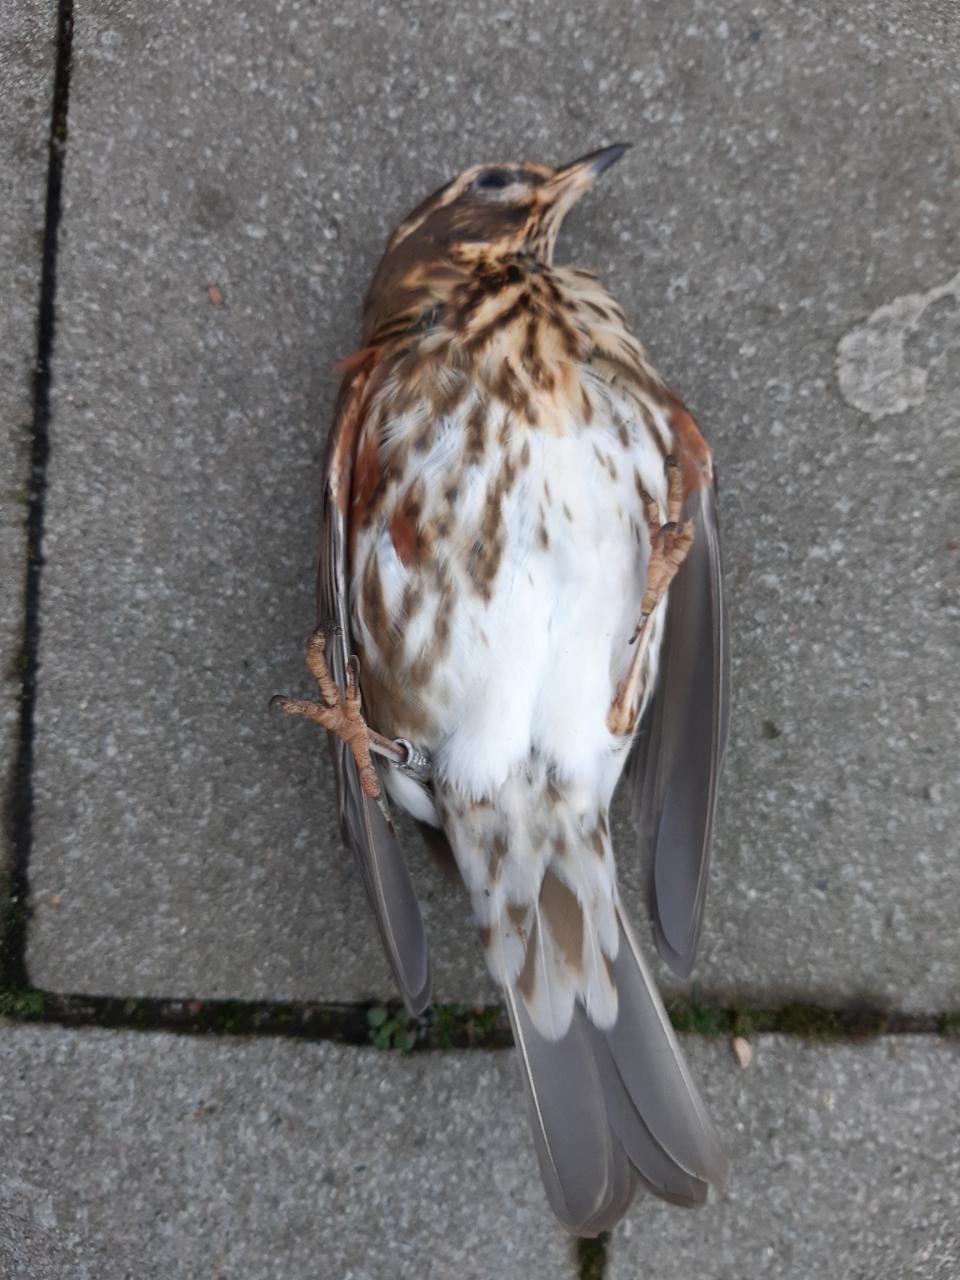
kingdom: Animalia
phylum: Chordata
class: Aves
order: Passeriformes
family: Turdidae
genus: Turdus
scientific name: Turdus iliacus
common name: Redwing
